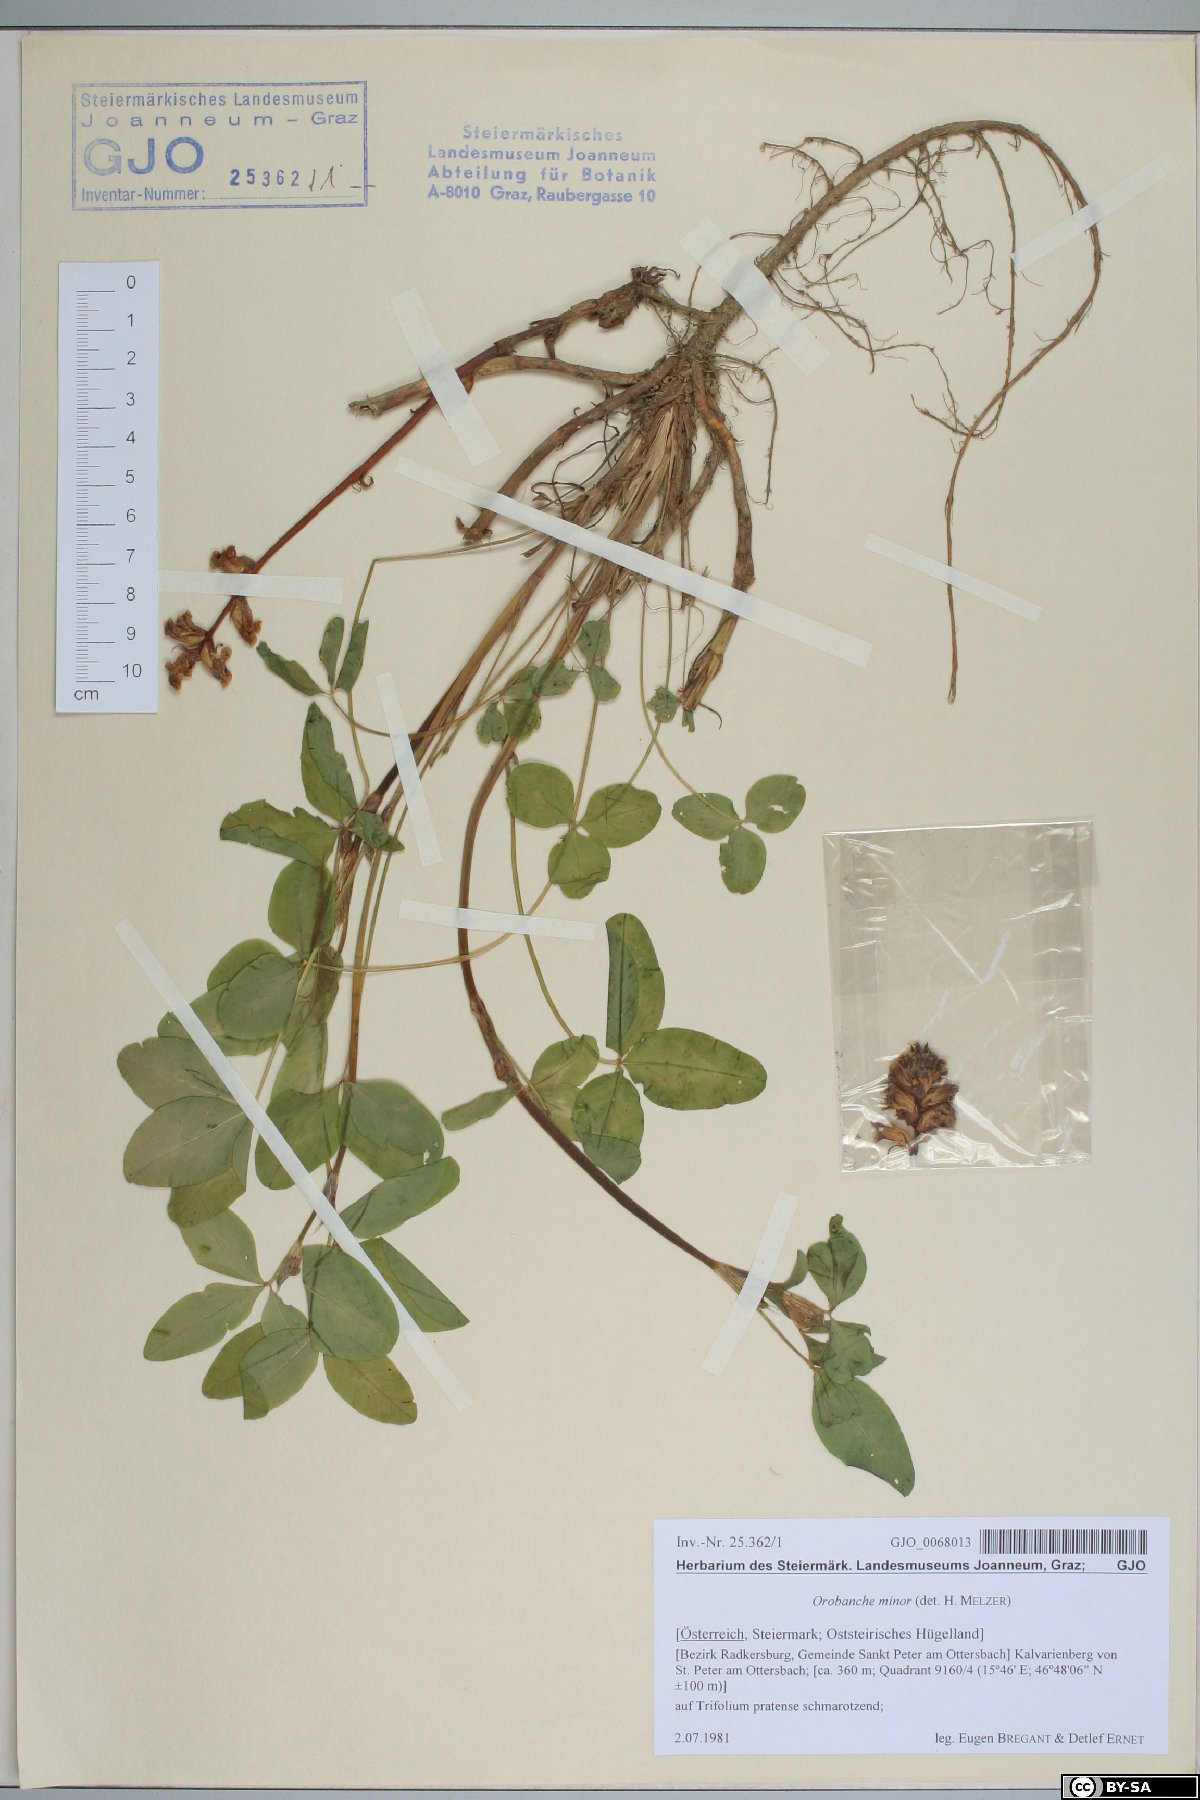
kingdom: Plantae
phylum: Tracheophyta
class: Magnoliopsida
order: Lamiales
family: Orobanchaceae
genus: Orobanche
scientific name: Orobanche minor
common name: Common broomrape
